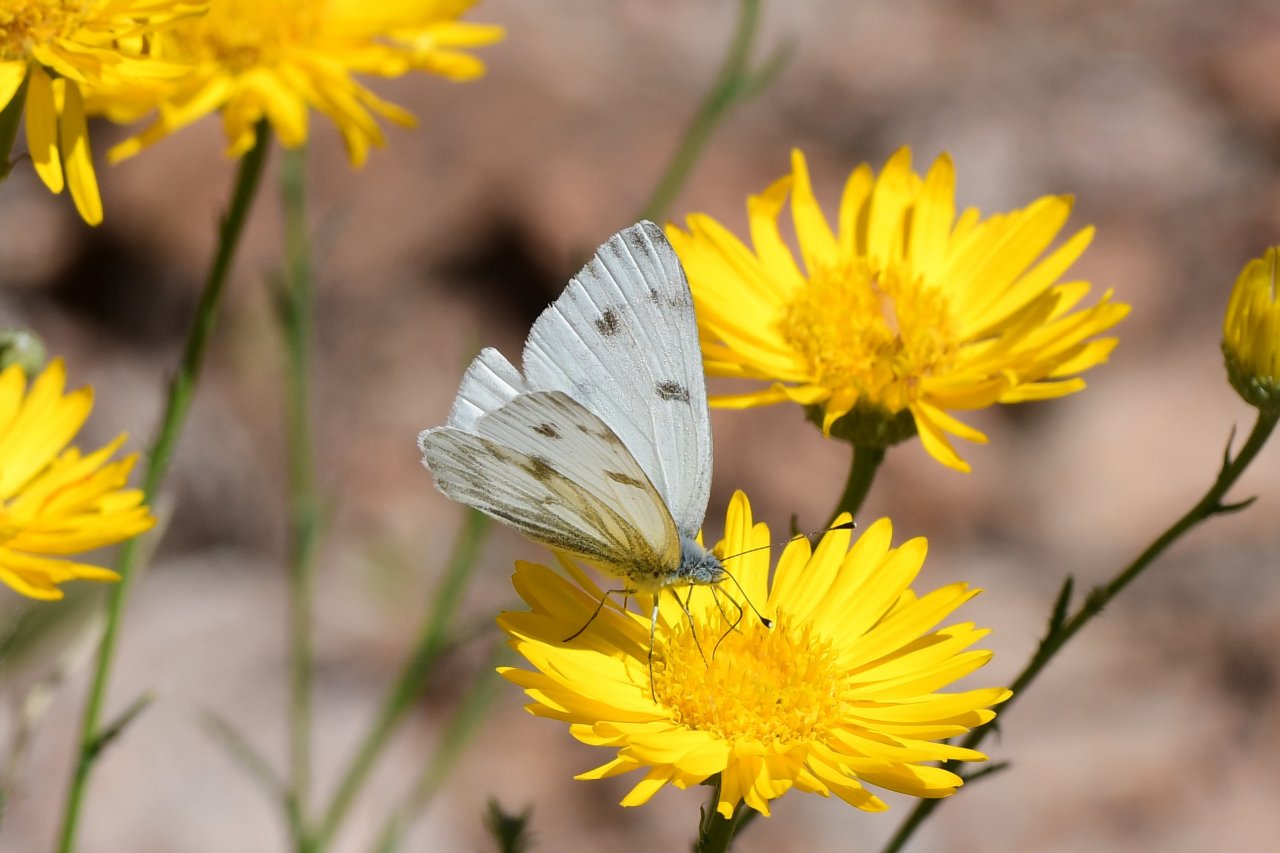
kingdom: Animalia
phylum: Arthropoda
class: Insecta
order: Lepidoptera
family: Pieridae
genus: Pontia
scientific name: Pontia protodice
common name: Checkered White
